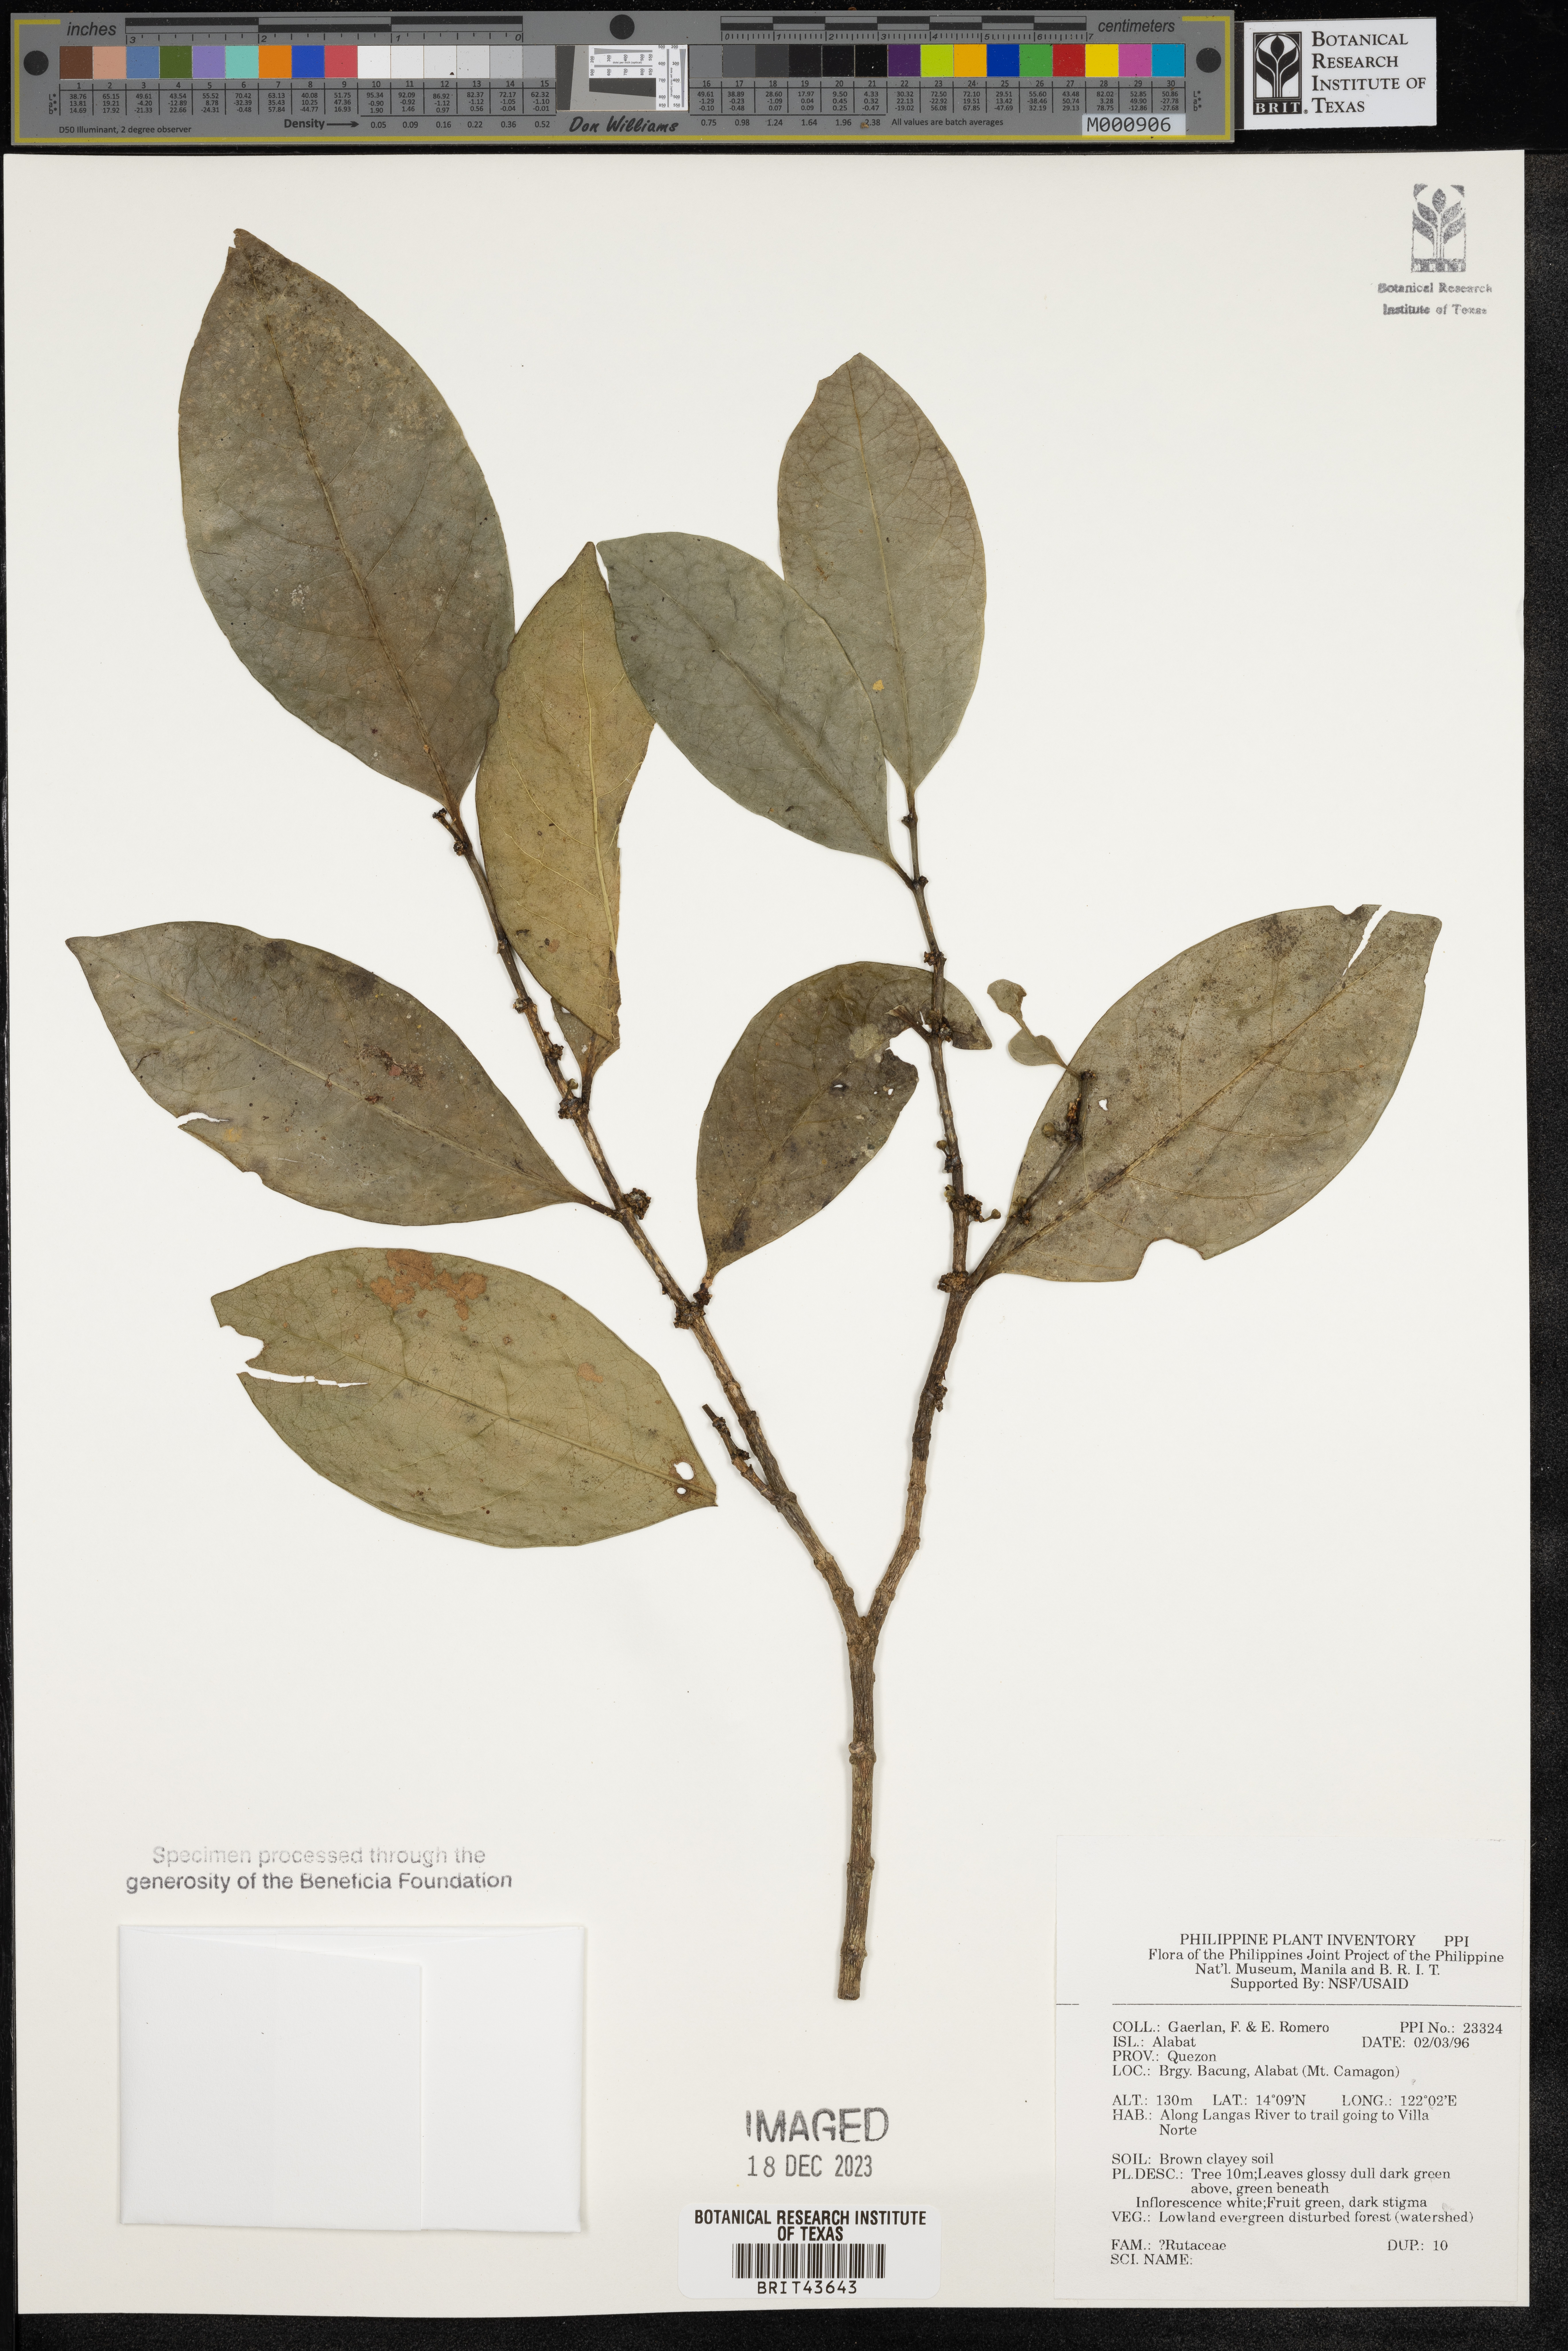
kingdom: Plantae
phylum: Tracheophyta
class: Magnoliopsida
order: Sapindales
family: Rutaceae
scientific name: Rutaceae
